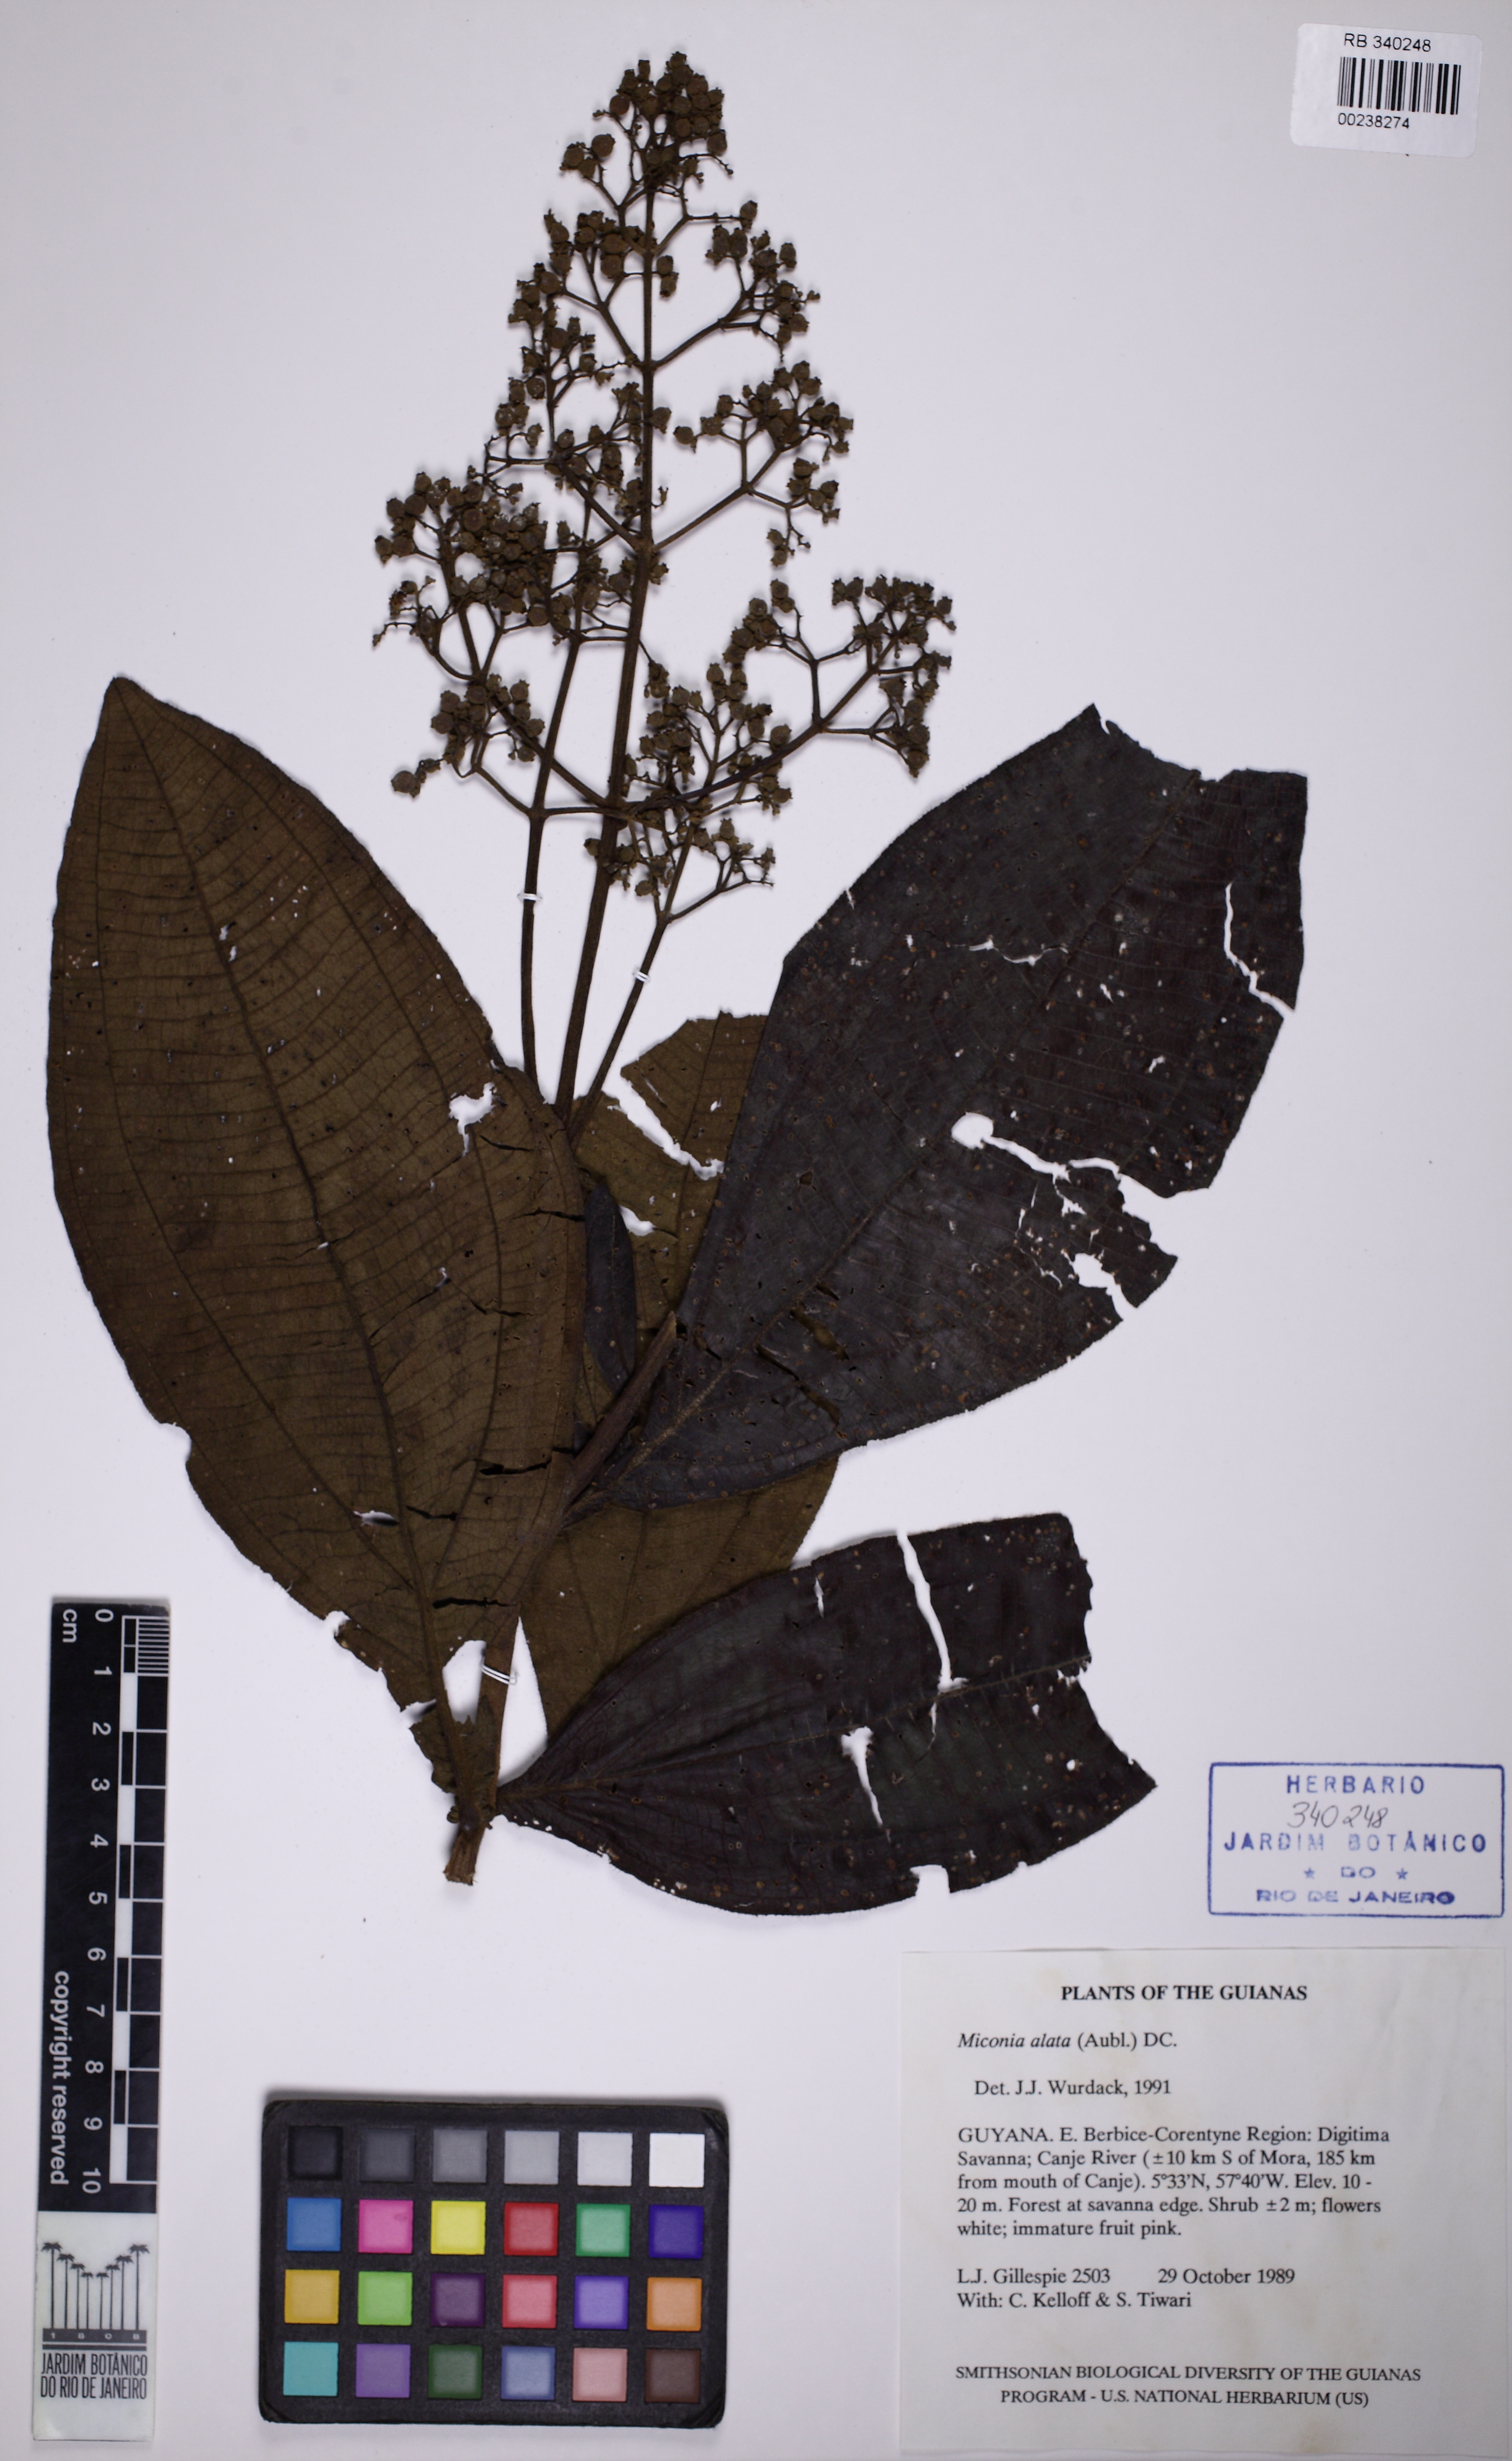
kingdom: Plantae
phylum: Tracheophyta
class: Magnoliopsida
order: Myrtales
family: Melastomataceae
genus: Miconia
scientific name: Miconia alata
